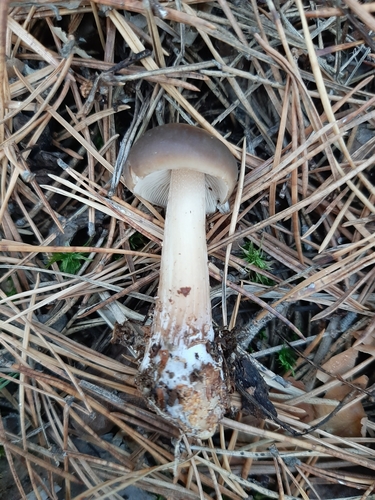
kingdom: Fungi
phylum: Basidiomycota
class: Agaricomycetes
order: Agaricales
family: Omphalotaceae
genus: Rhodocollybia
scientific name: Rhodocollybia butyracea
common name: Butter cap
